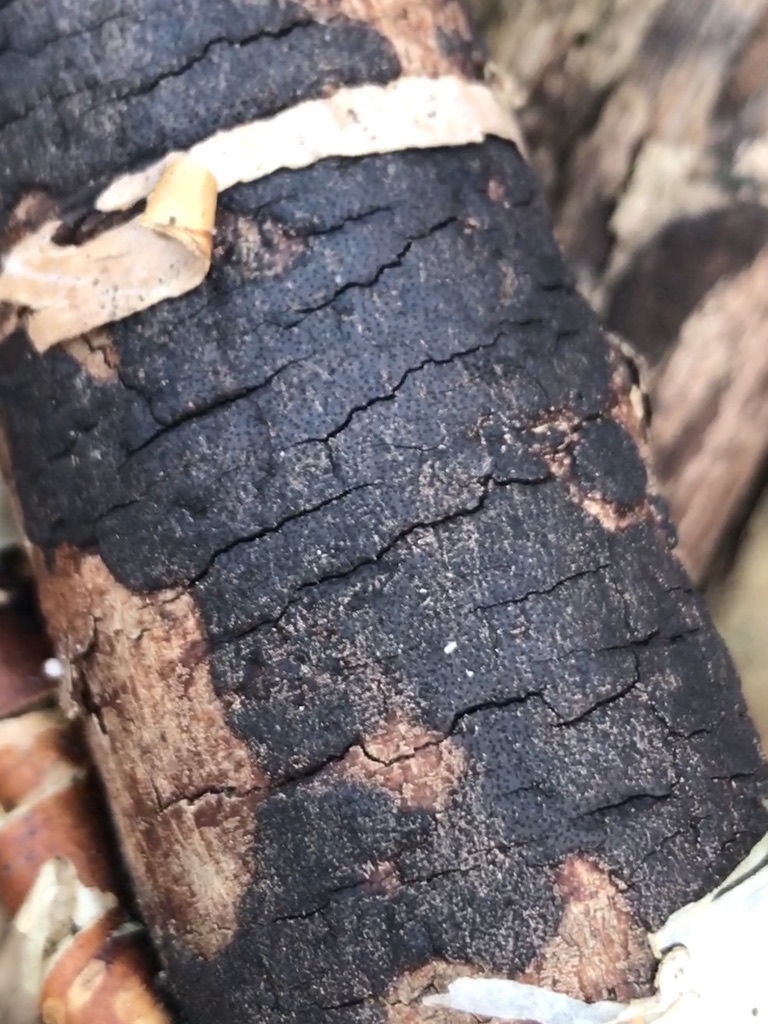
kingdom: Fungi
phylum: Ascomycota
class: Sordariomycetes
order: Xylariales
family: Diatrypaceae
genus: Eutypa
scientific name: Eutypa spinosa
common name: grov kulskorpe
